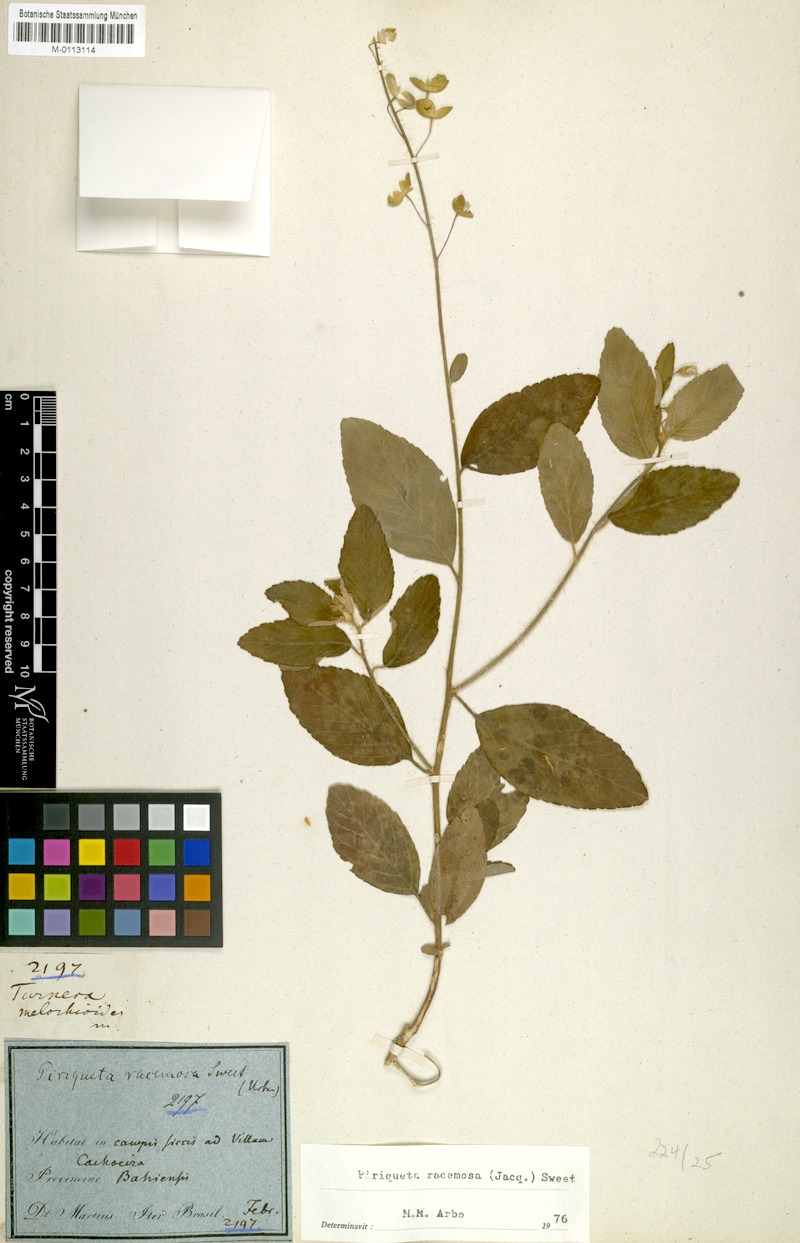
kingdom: Plantae
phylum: Tracheophyta
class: Magnoliopsida
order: Malpighiales
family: Turneraceae
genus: Piriqueta
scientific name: Piriqueta racemosa
